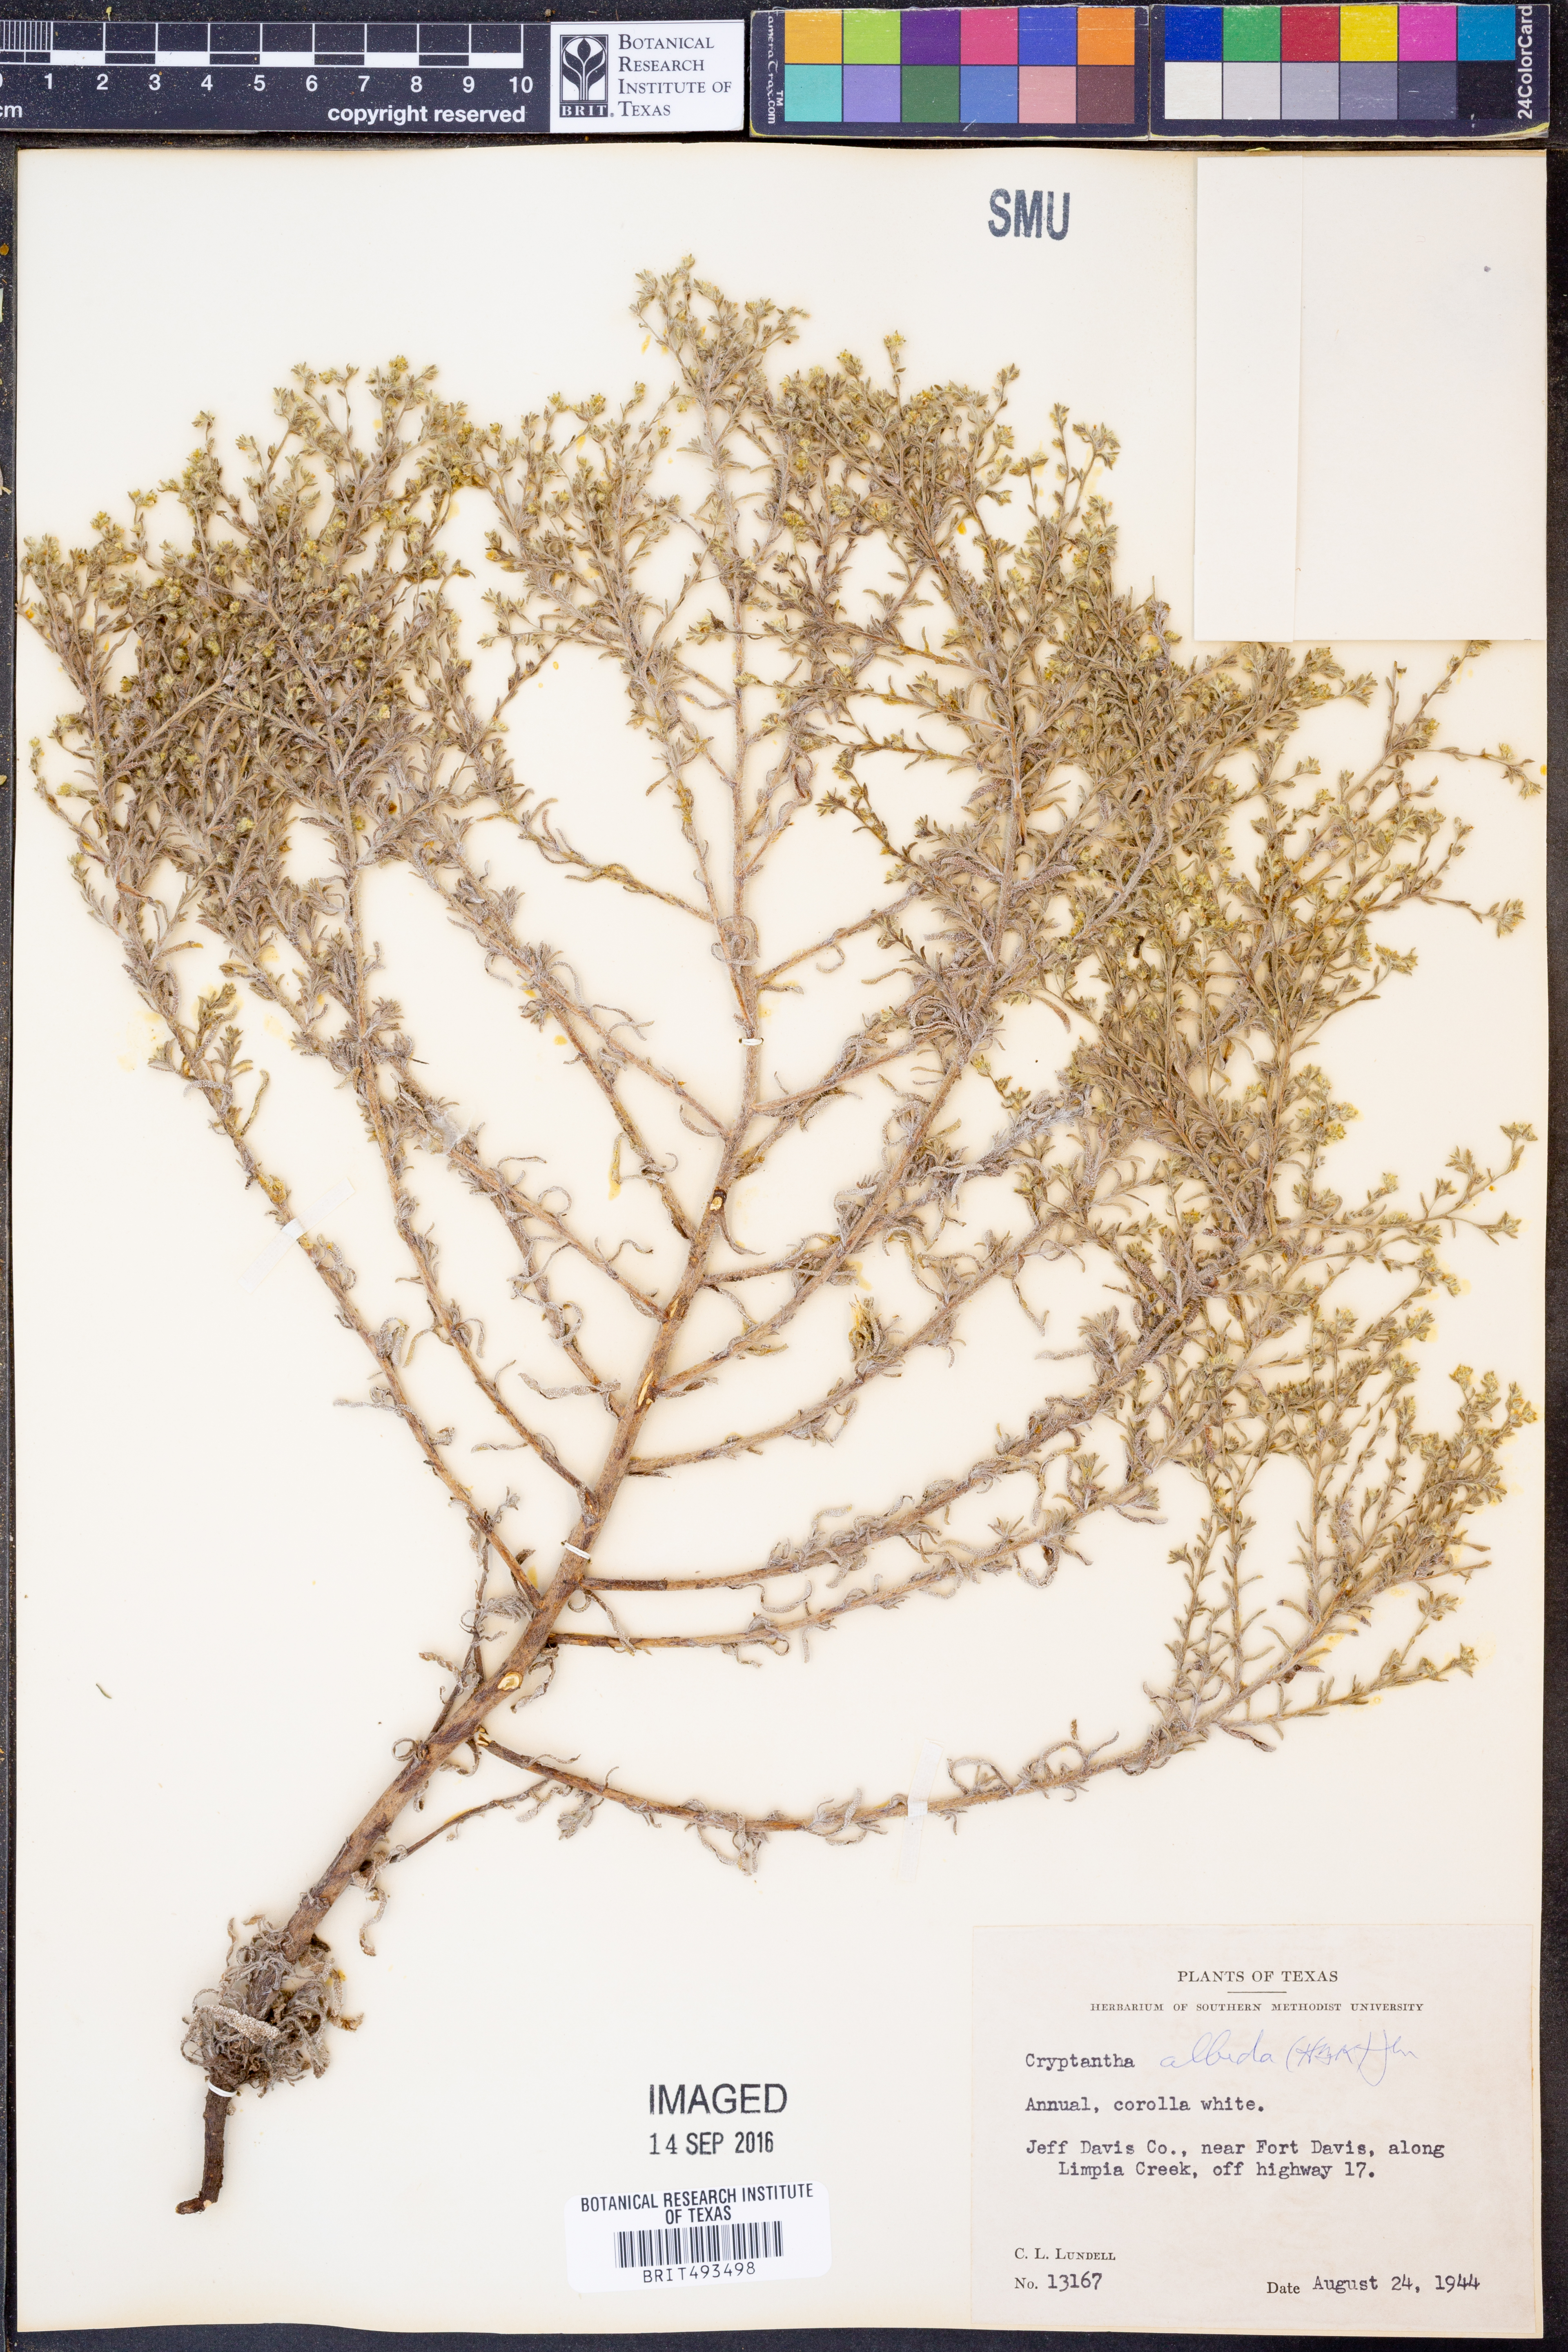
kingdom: Plantae
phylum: Tracheophyta
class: Magnoliopsida
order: Boraginales
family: Boraginaceae
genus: Johnstonella
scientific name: Johnstonella albida
